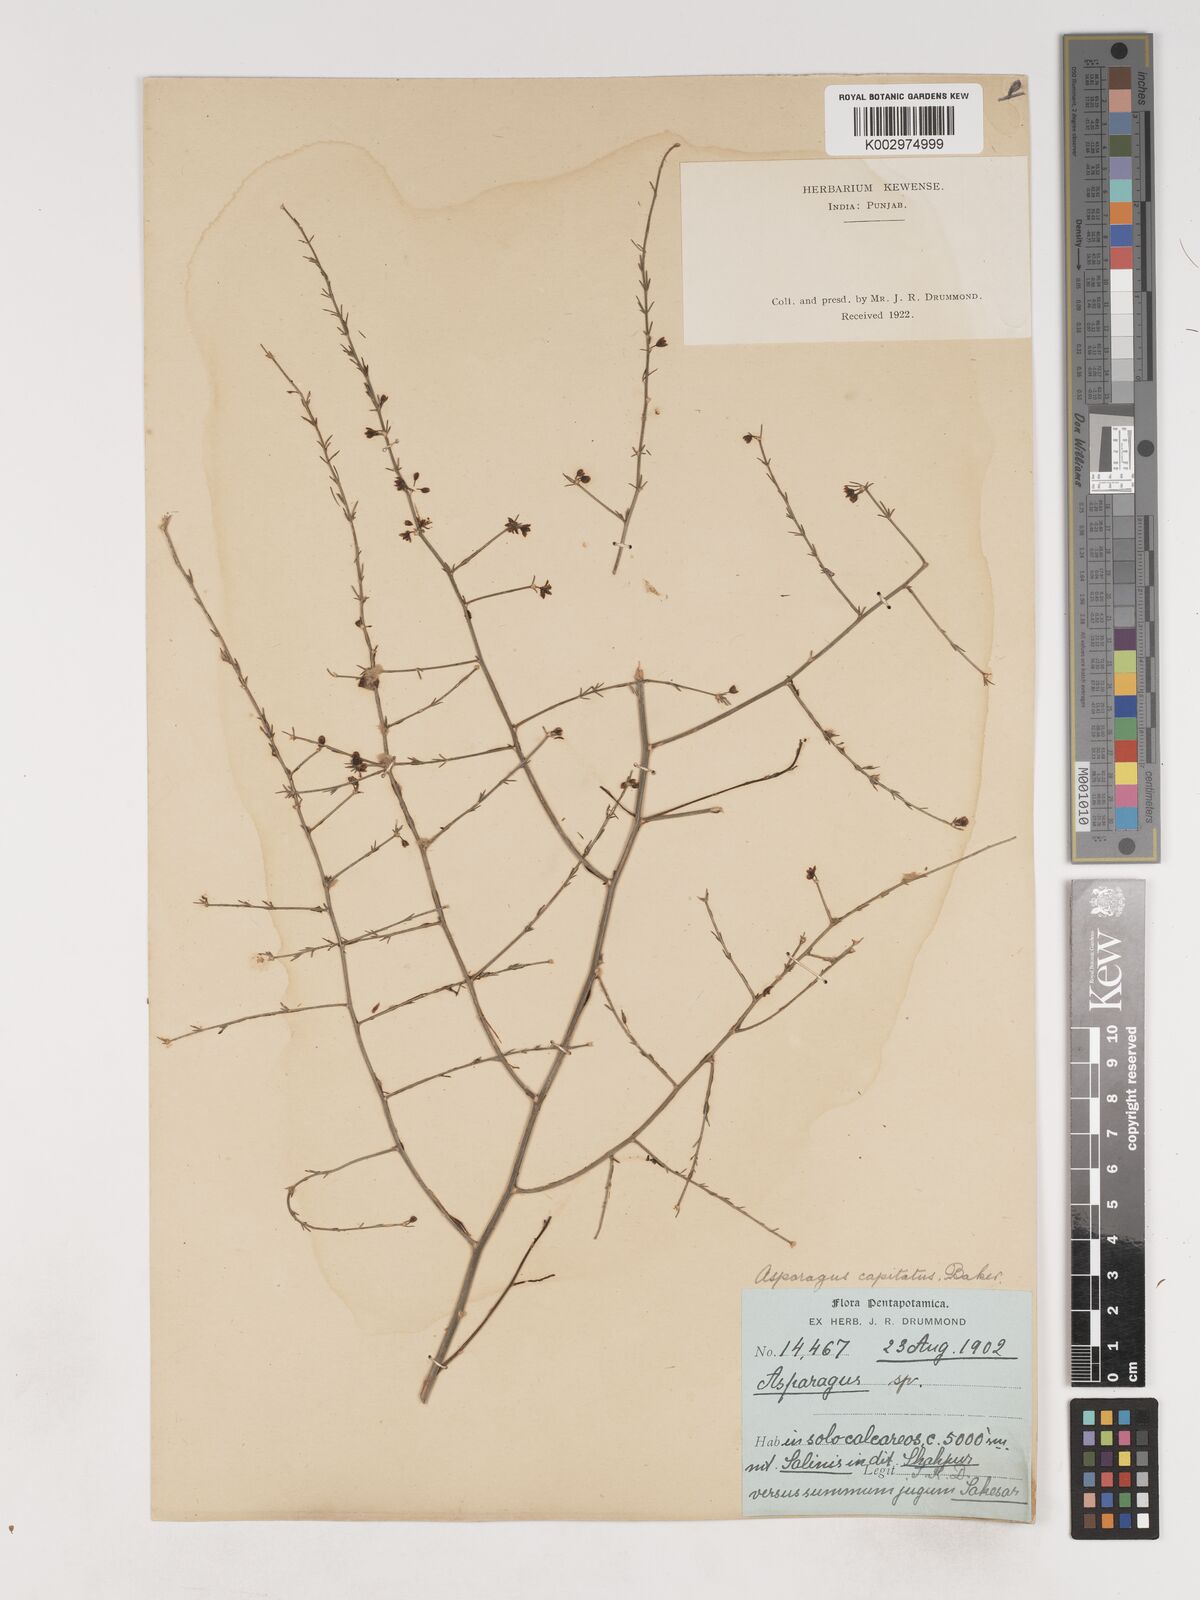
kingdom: Plantae
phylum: Tracheophyta
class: Liliopsida
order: Asparagales
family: Asparagaceae
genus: Asparagus
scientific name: Asparagus capitatus
